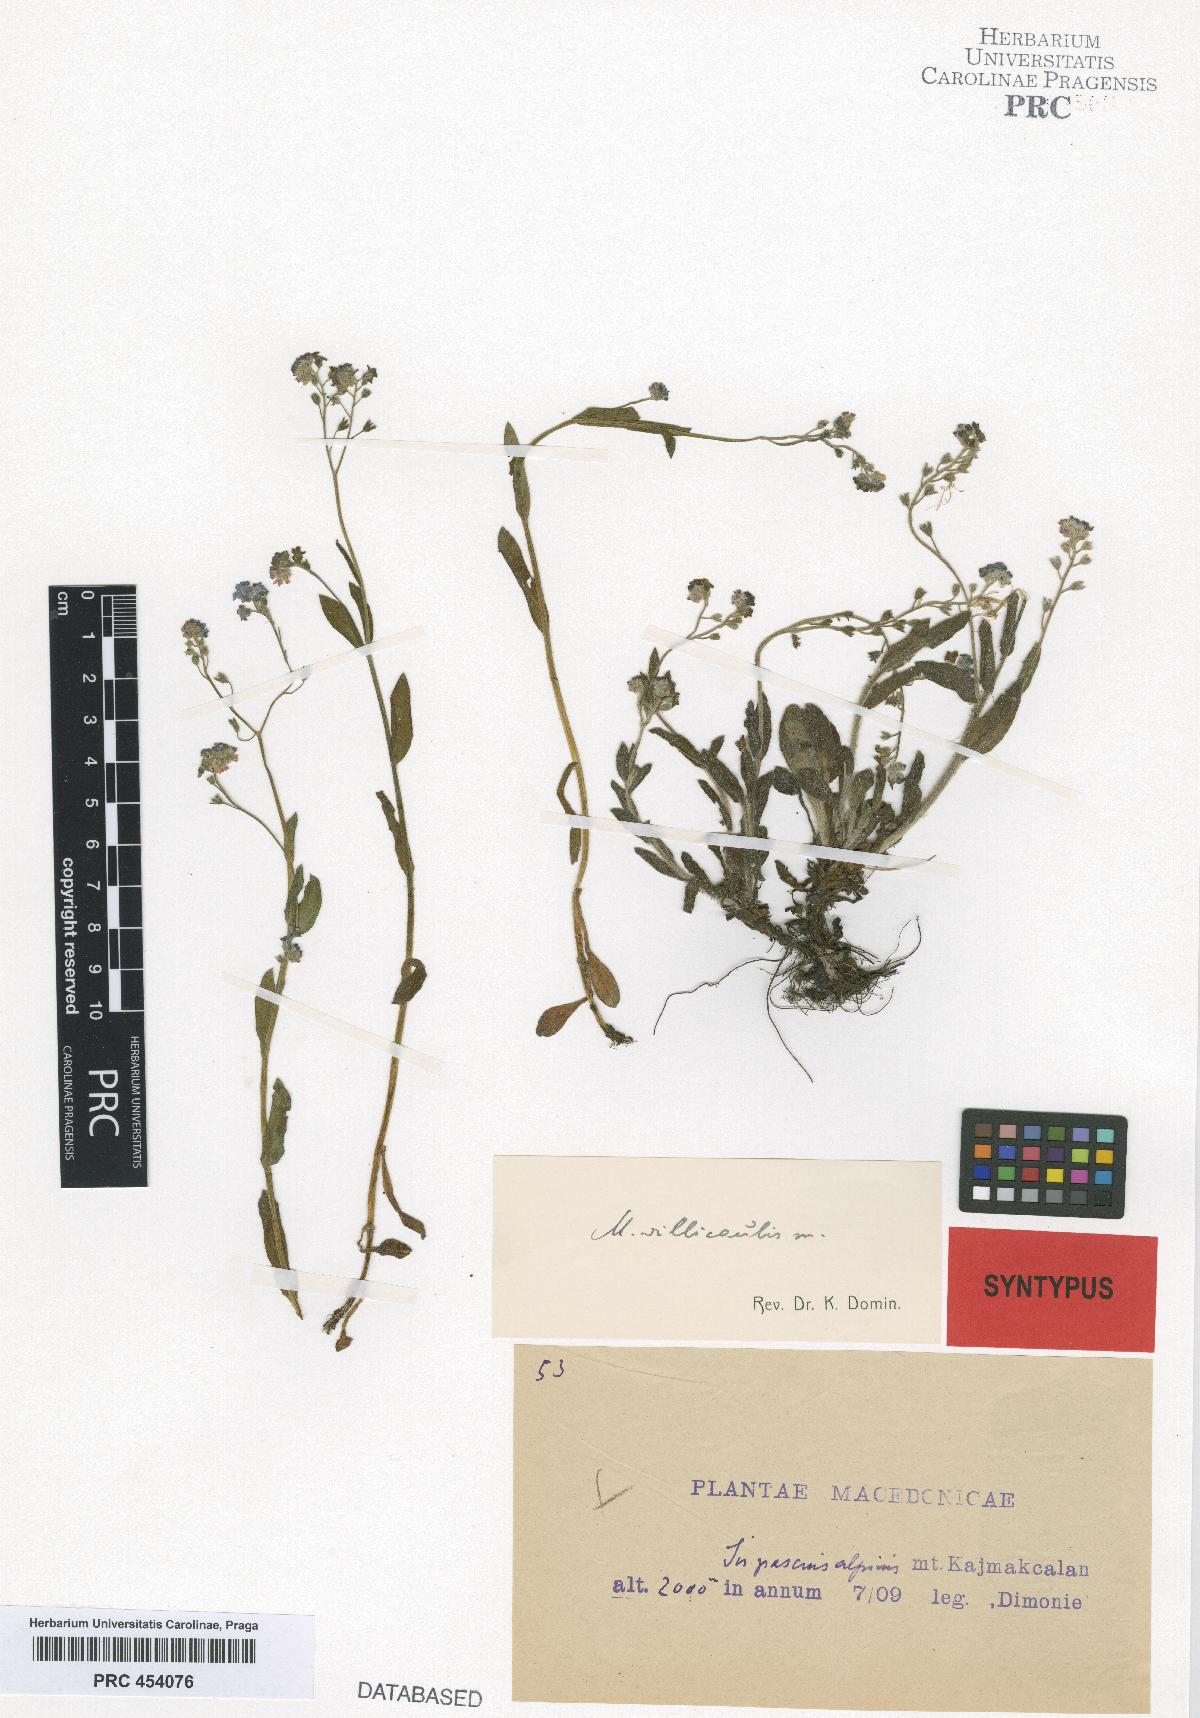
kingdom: Plantae
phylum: Tracheophyta
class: Magnoliopsida
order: Boraginales
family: Boraginaceae
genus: Myosotis
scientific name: Myosotis villicaulis
